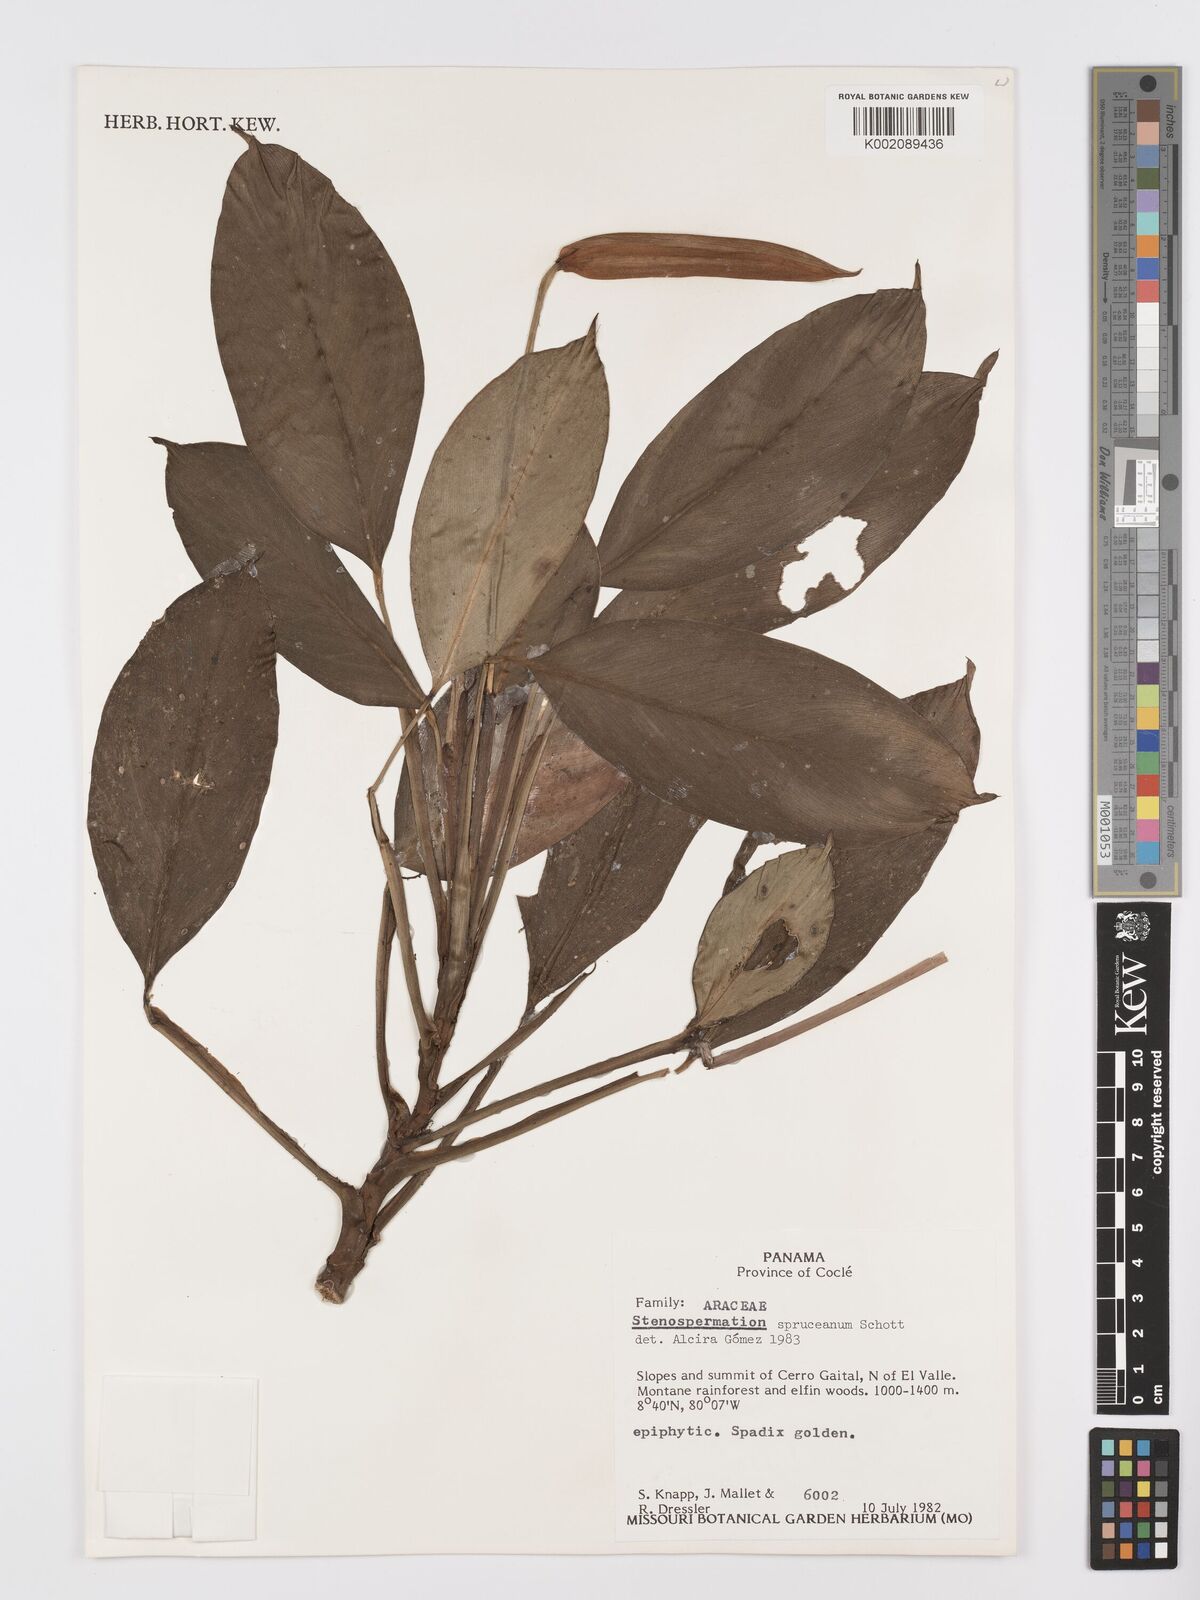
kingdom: Plantae
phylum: Tracheophyta
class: Liliopsida
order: Alismatales
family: Araceae
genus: Stenospermation
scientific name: Stenospermation spruceanum
